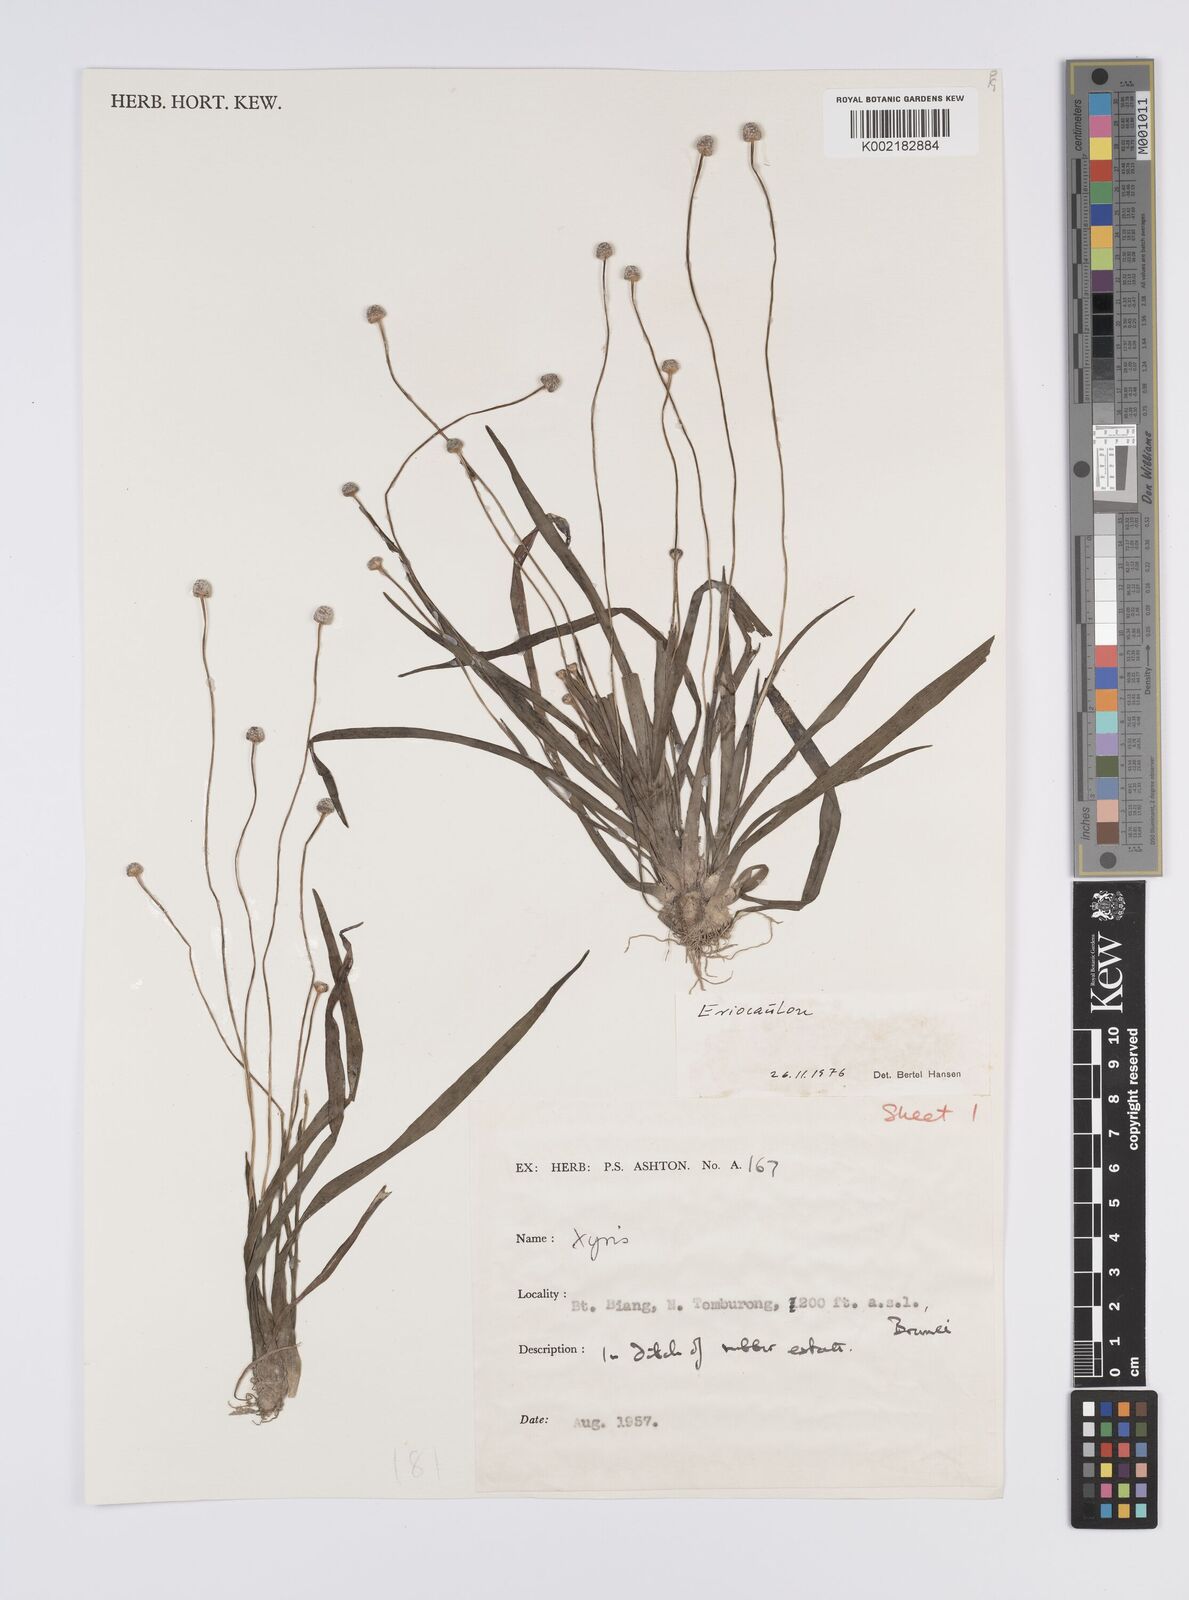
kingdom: Plantae
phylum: Tracheophyta
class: Liliopsida
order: Poales
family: Eriocaulaceae
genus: Eriocaulon
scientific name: Eriocaulon
